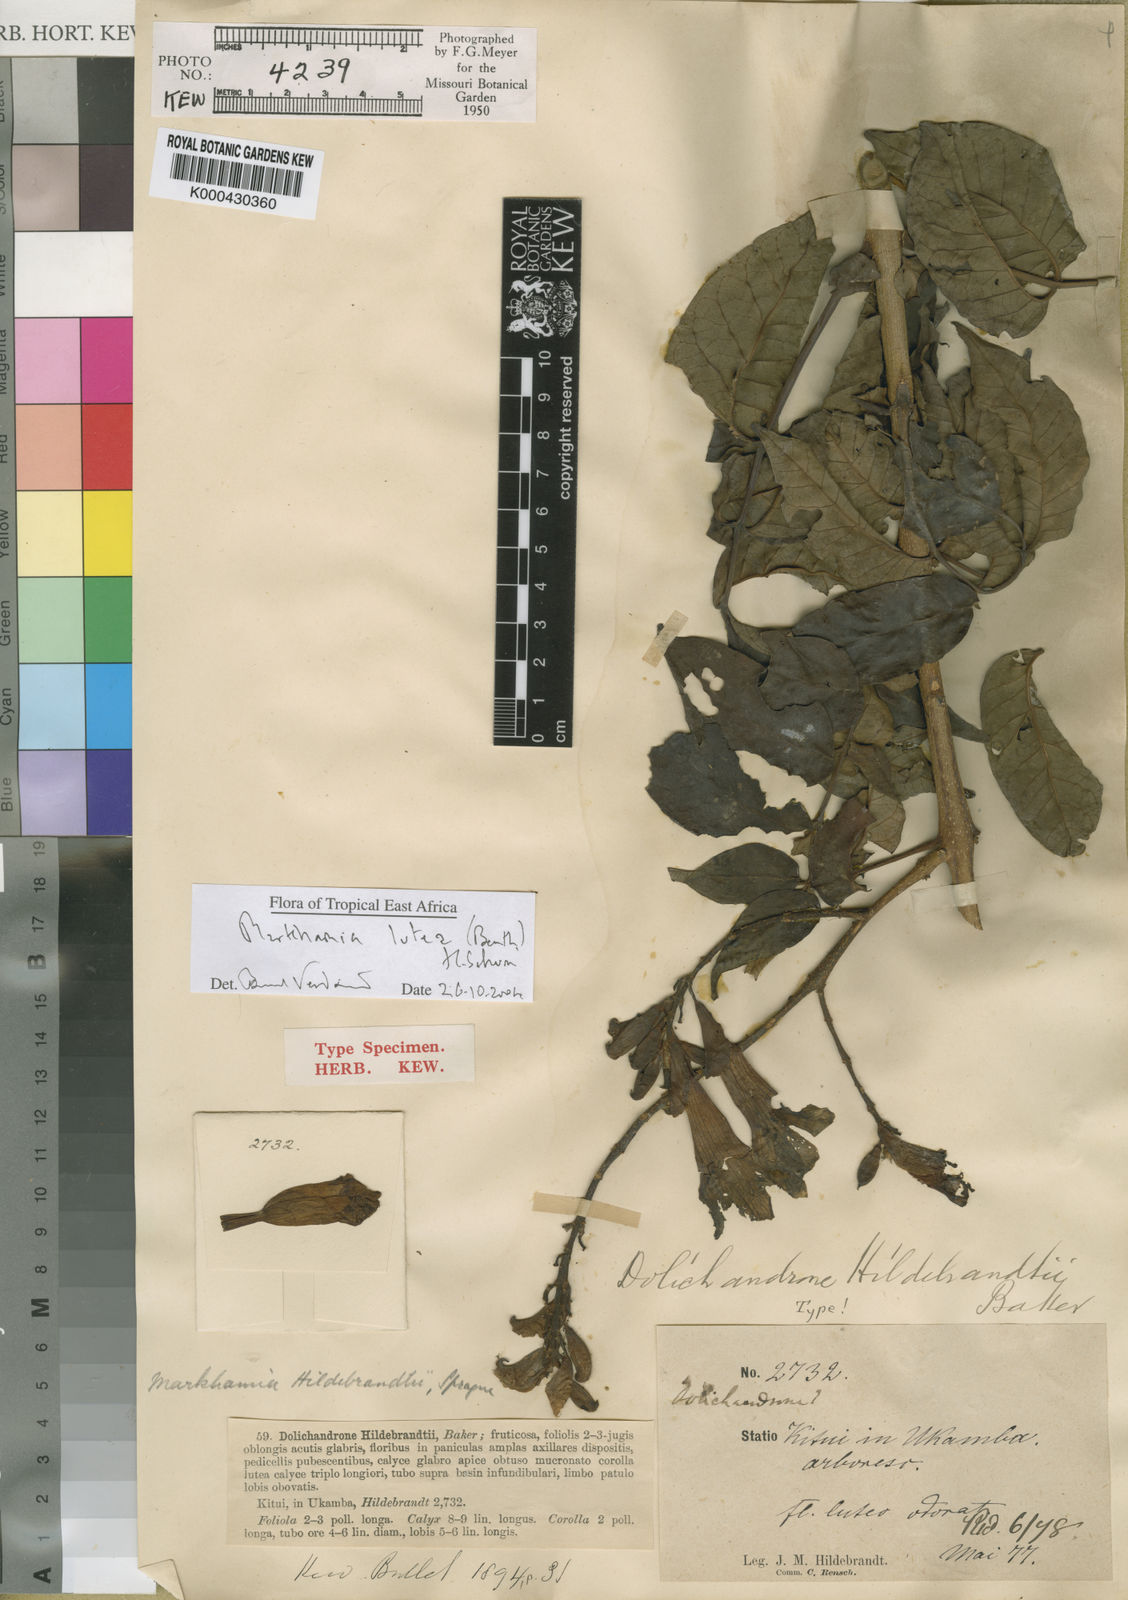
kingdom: Plantae
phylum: Tracheophyta
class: Magnoliopsida
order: Lamiales
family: Bignoniaceae
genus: Markhamia
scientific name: Markhamia lutea
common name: Siala
